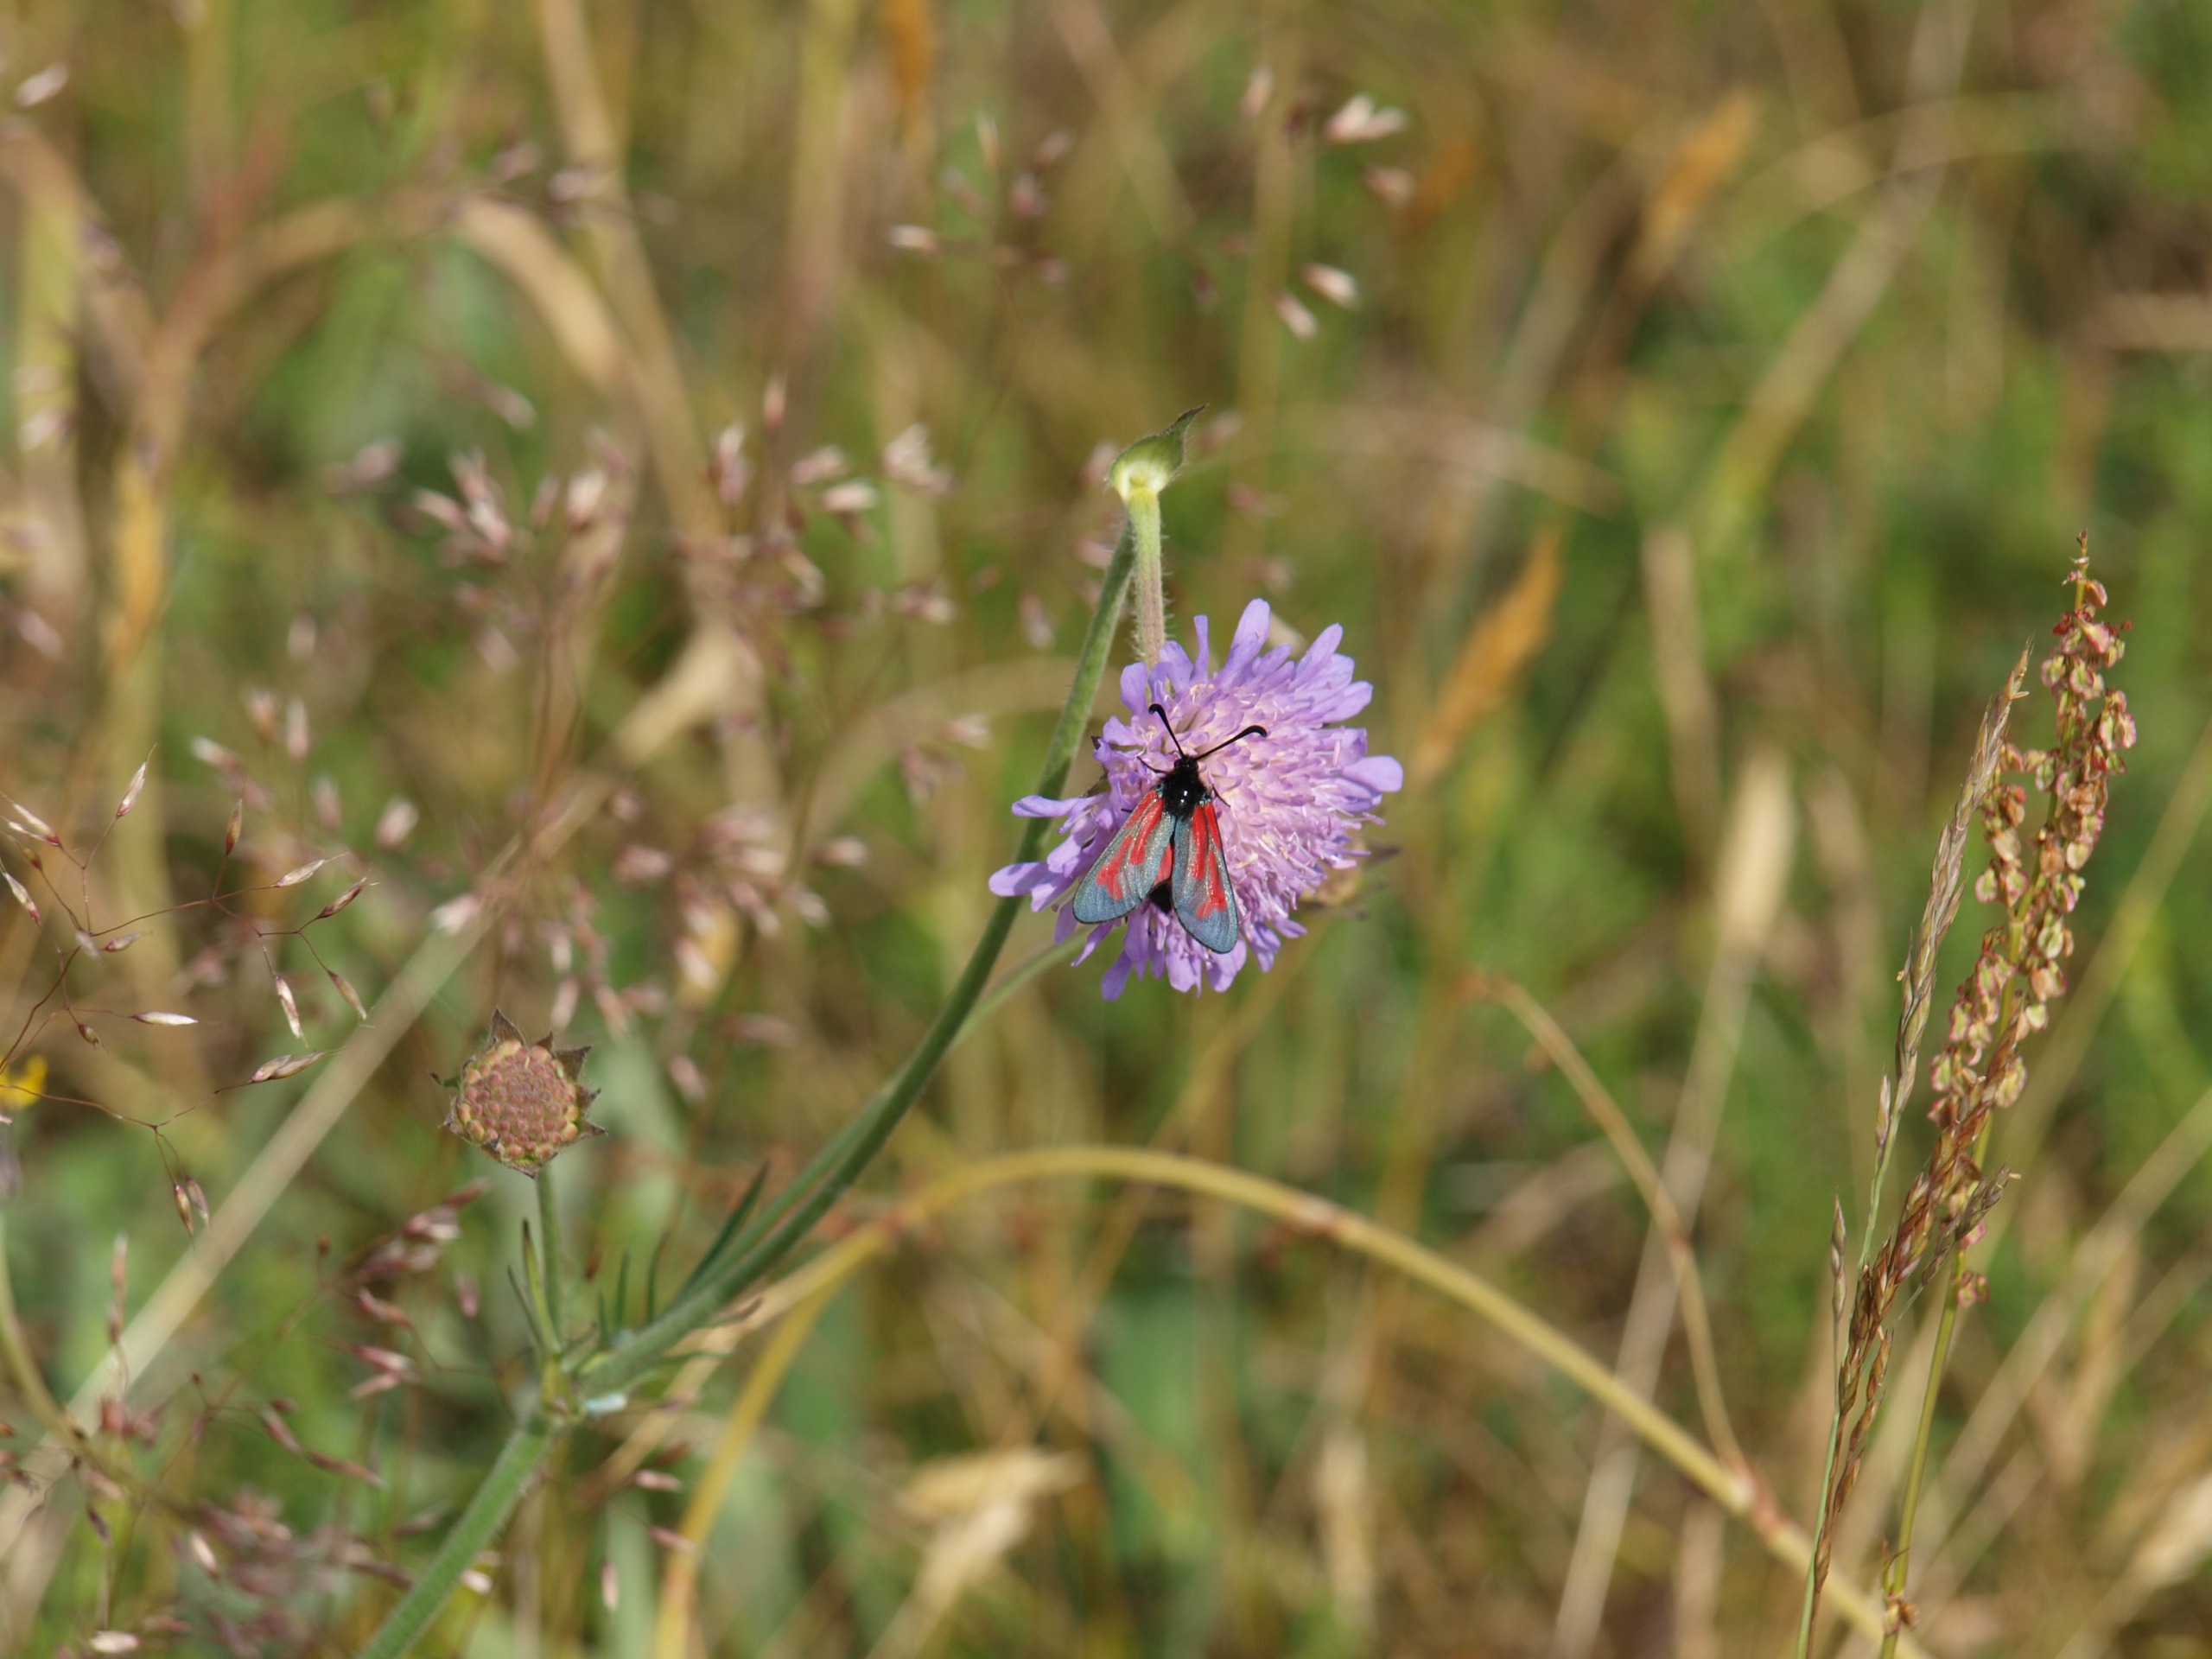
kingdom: Animalia
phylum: Arthropoda
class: Insecta
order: Lepidoptera
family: Zygaenidae
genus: Zygaena
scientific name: Zygaena minos
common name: Pimpernelkøllesværmer
